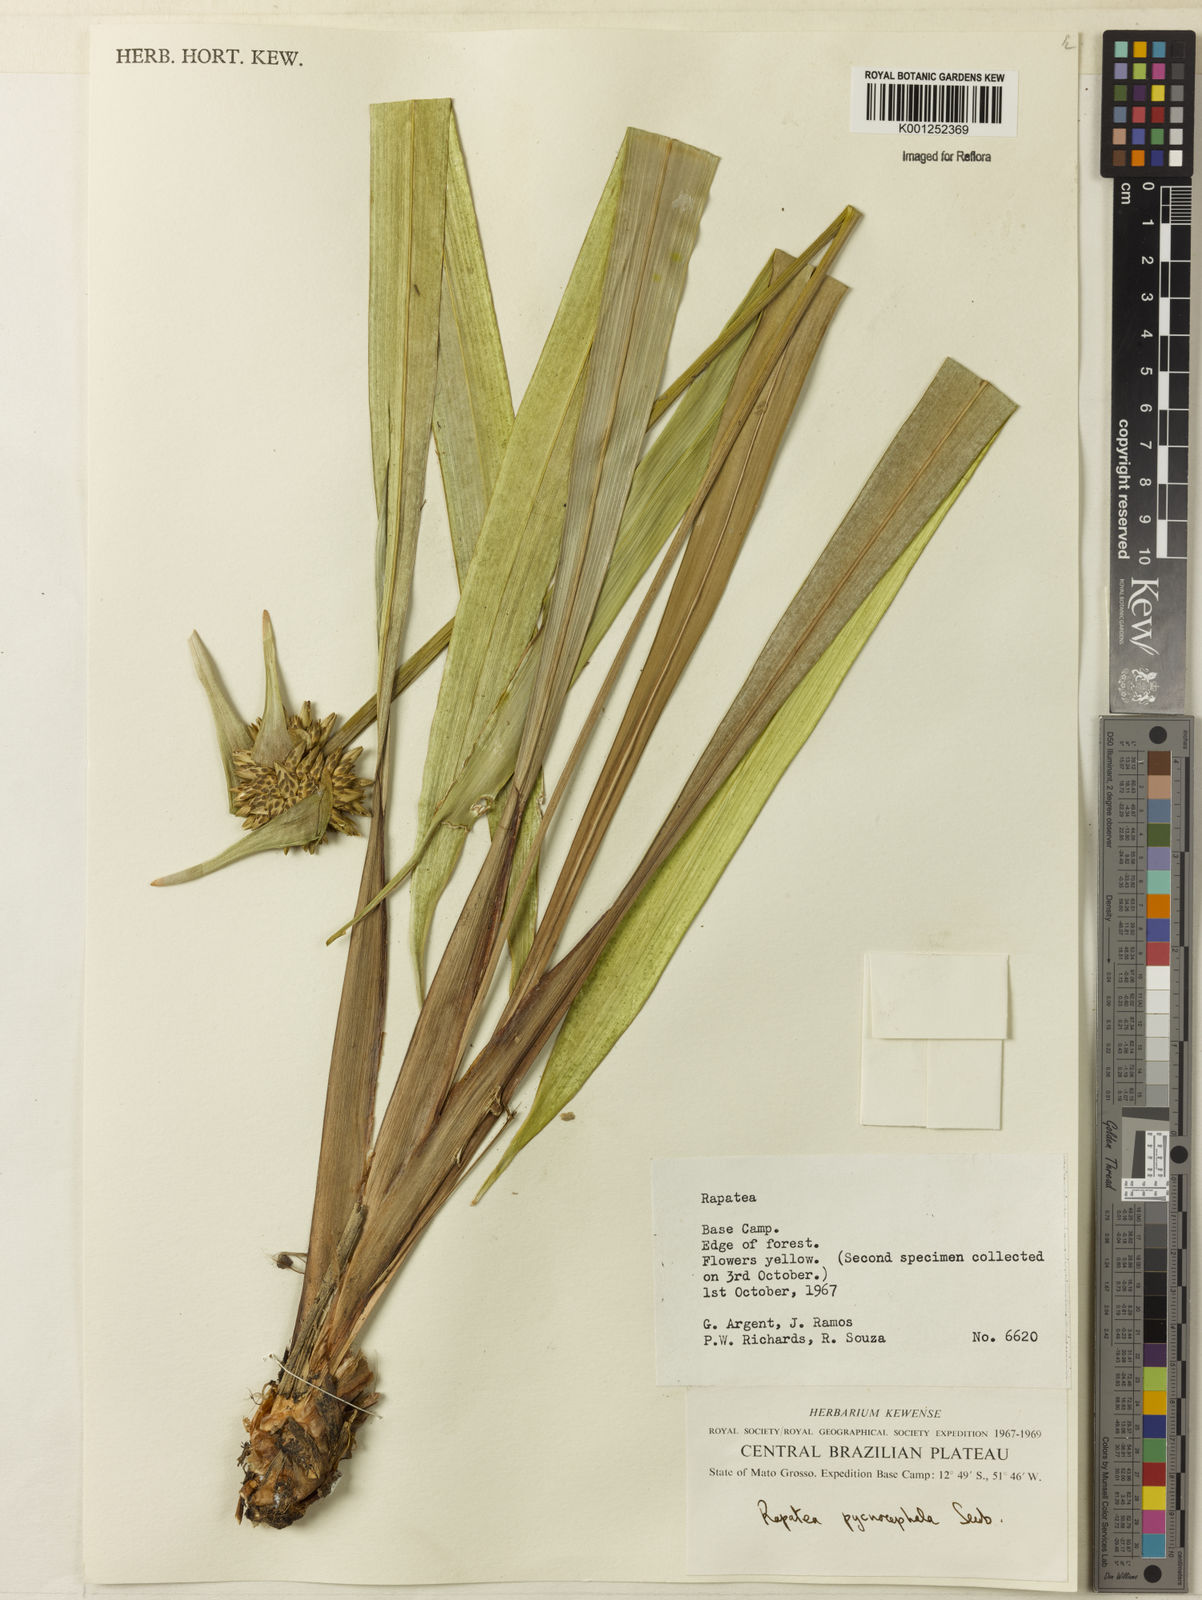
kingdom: Plantae
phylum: Tracheophyta
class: Liliopsida
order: Poales
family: Rapateaceae
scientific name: Rapateaceae
